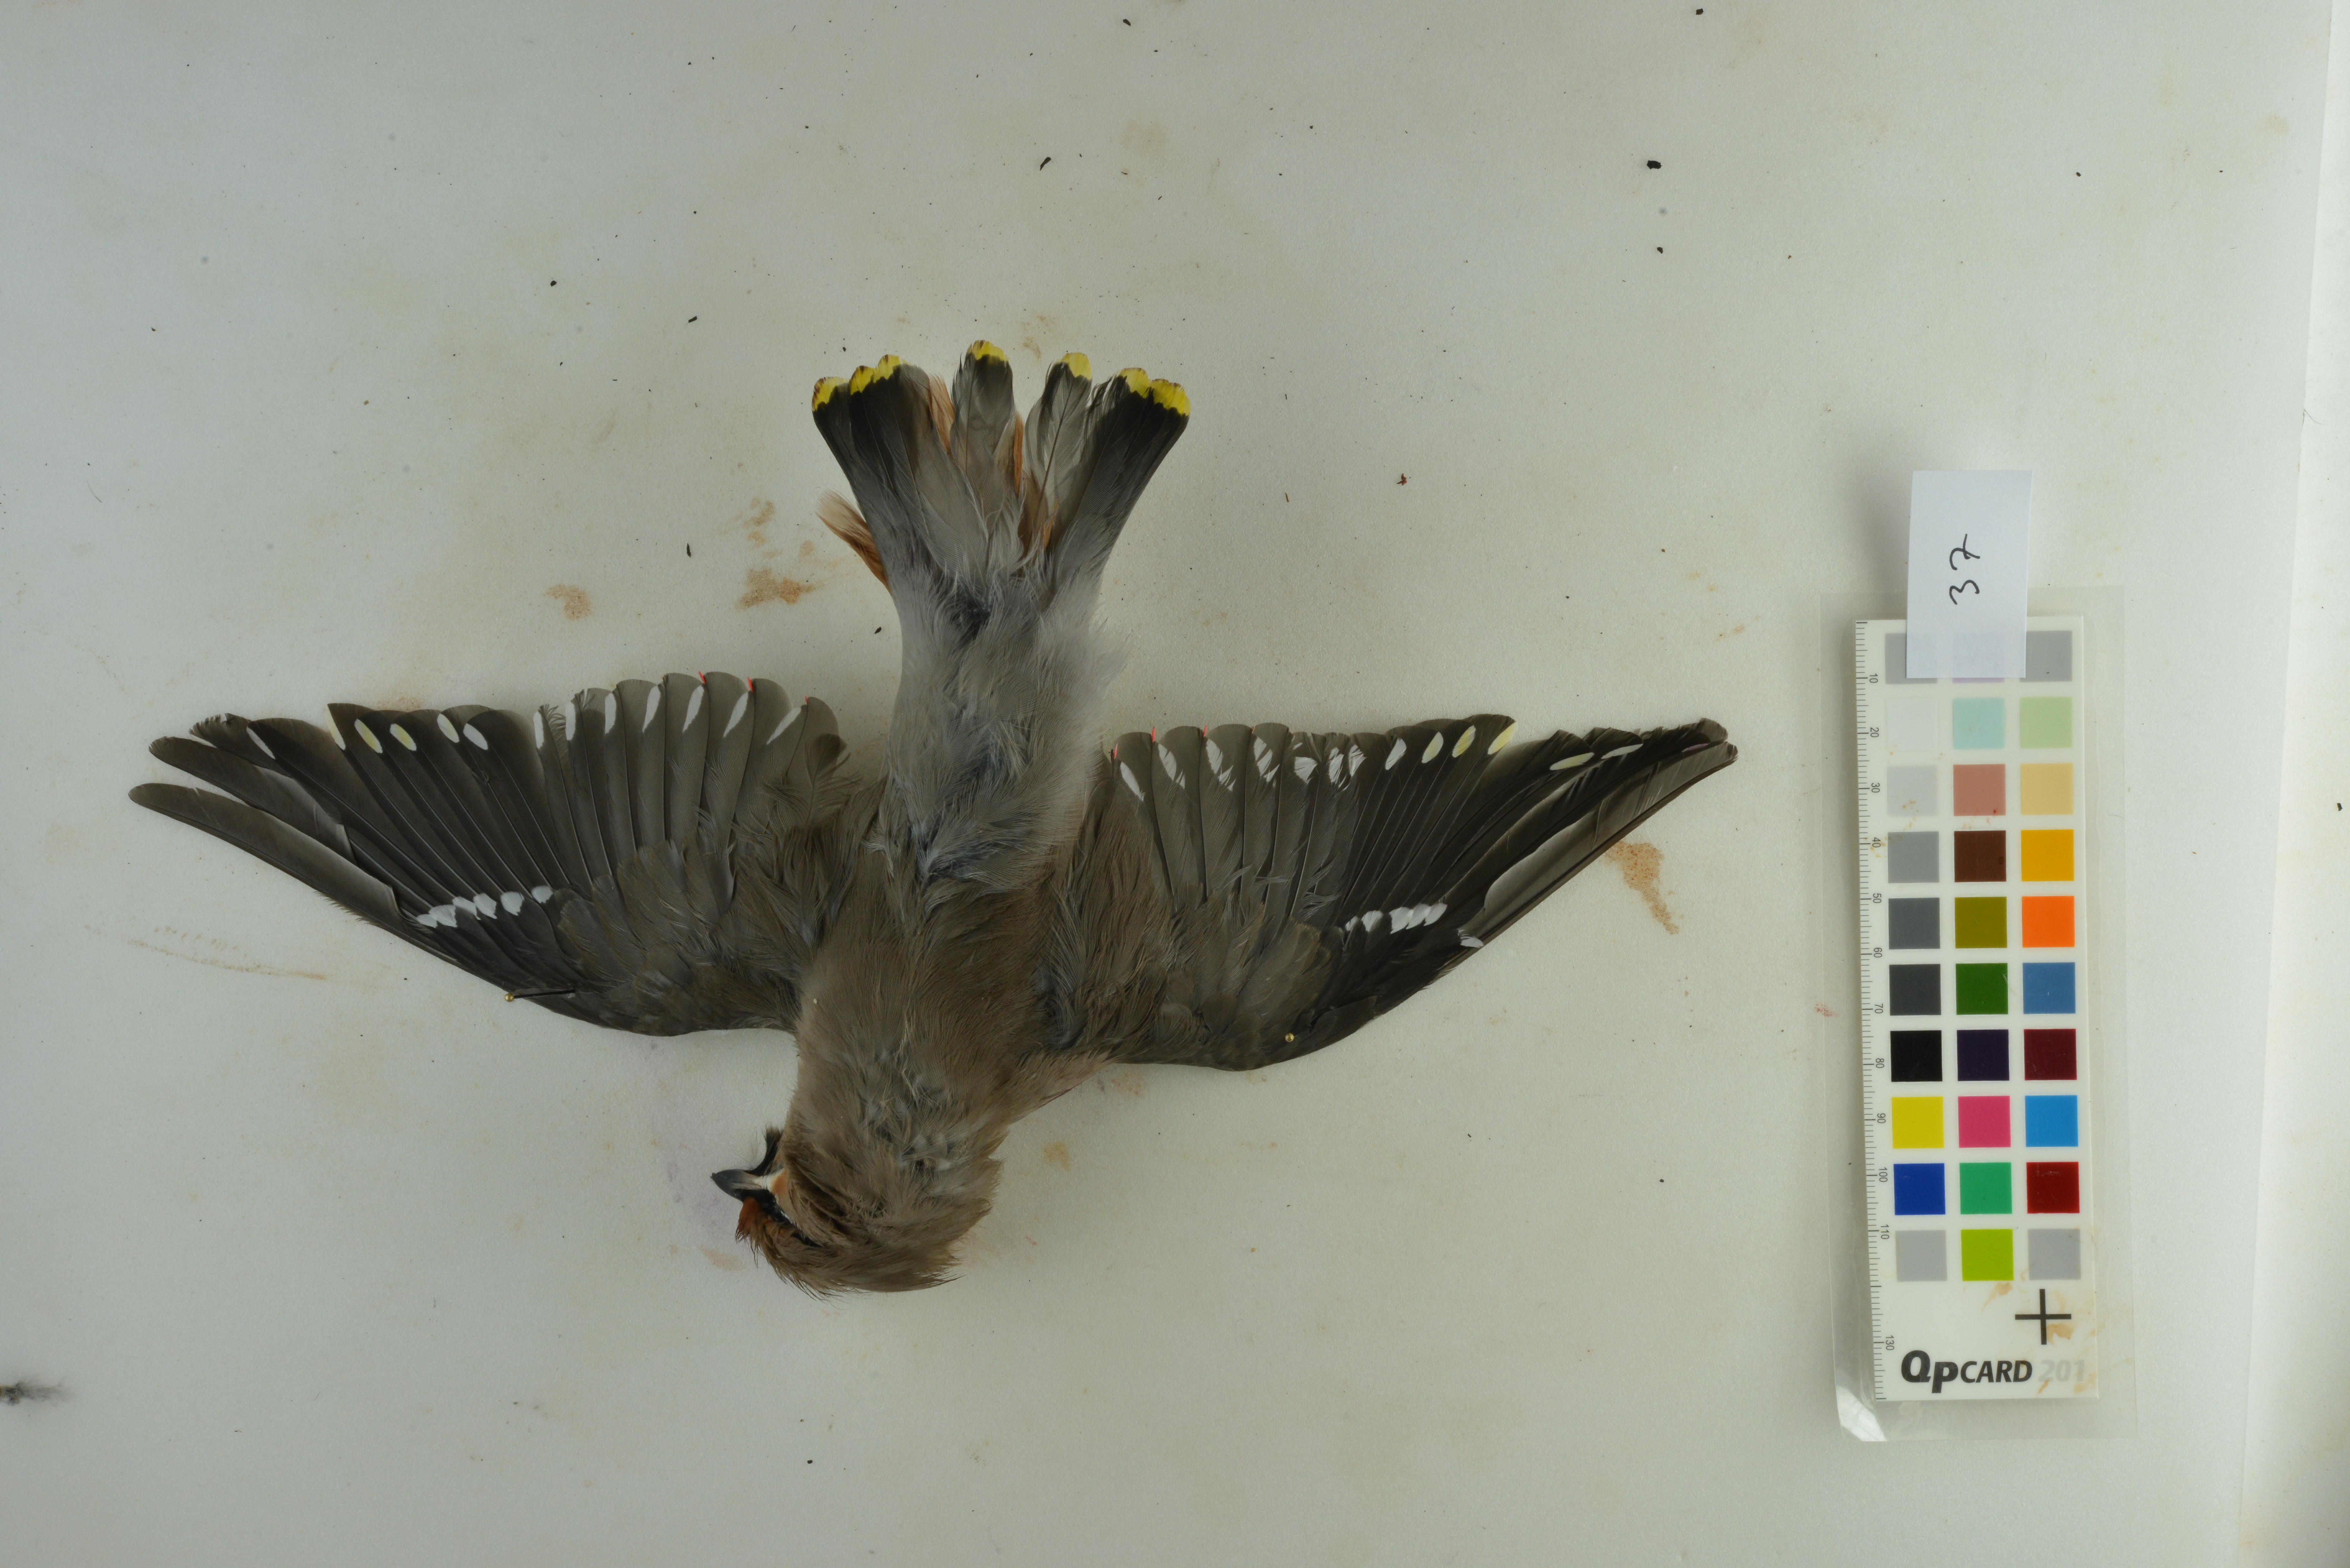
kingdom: Animalia
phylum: Chordata
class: Aves
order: Passeriformes
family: Bombycillidae
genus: Bombycilla
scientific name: Bombycilla garrulus
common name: Bohemian waxwing
